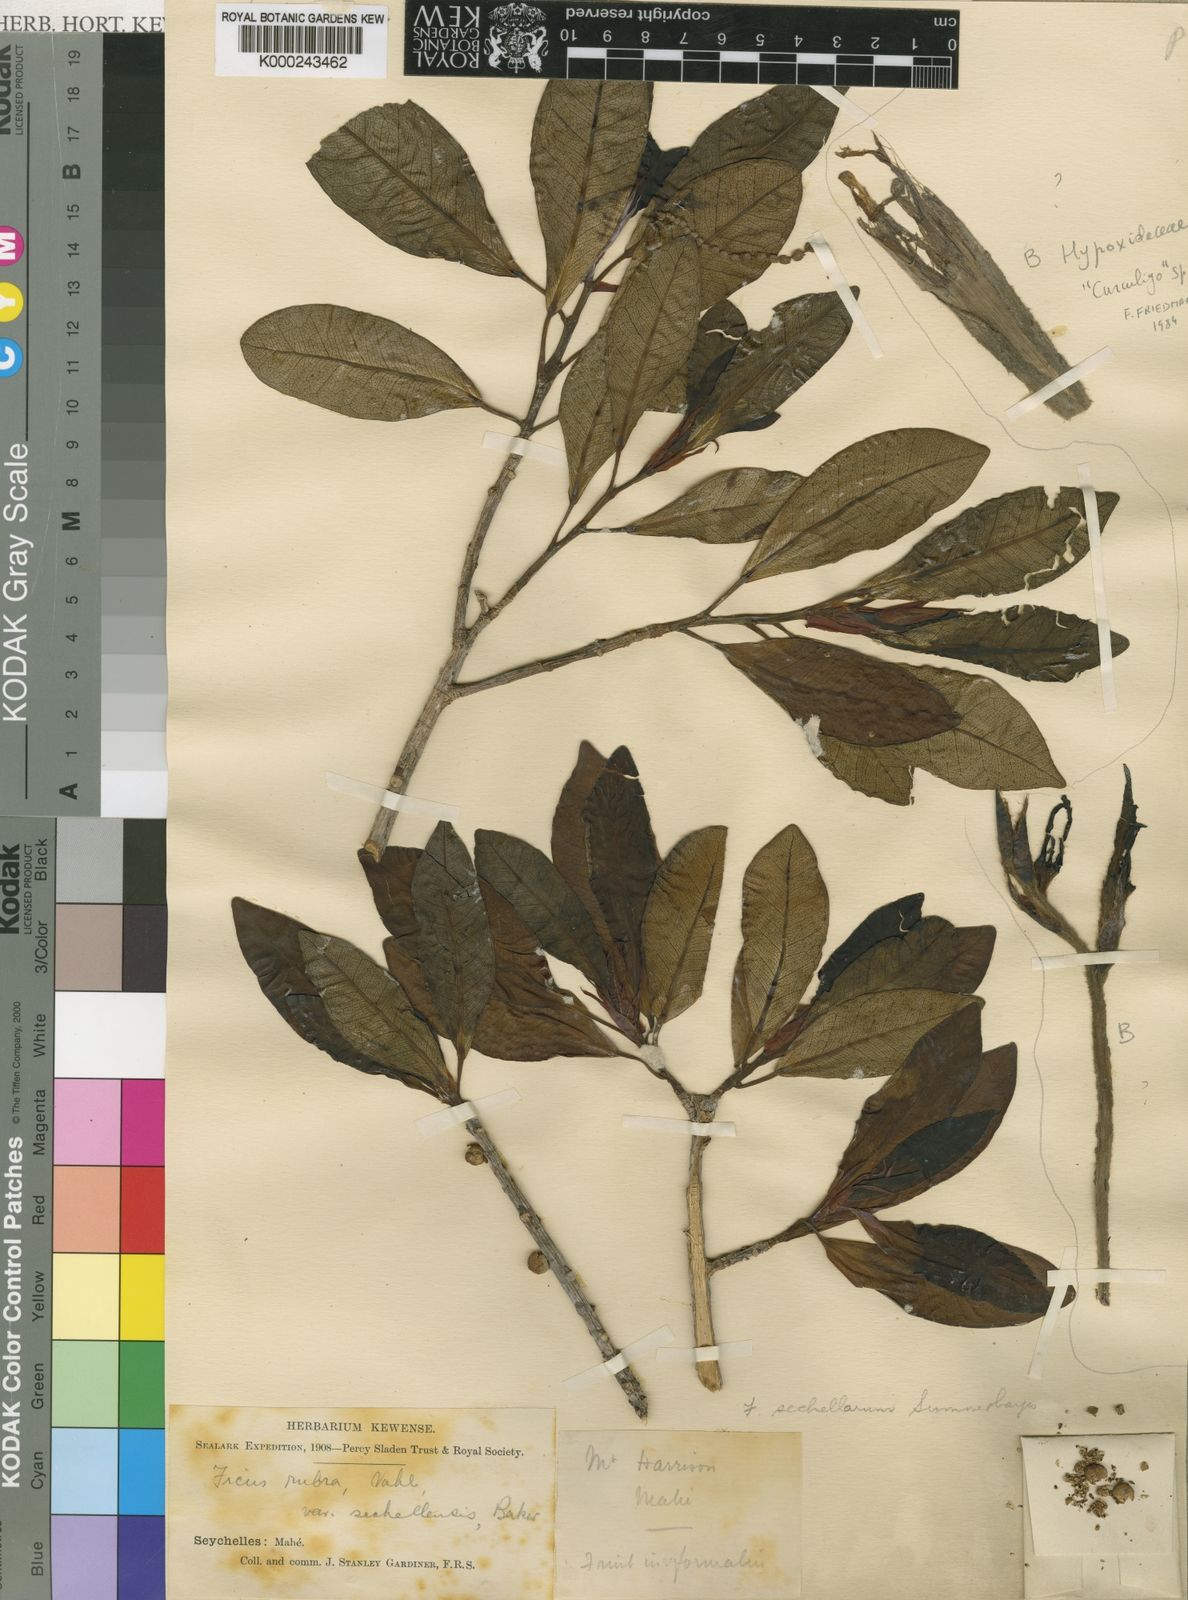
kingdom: Plantae
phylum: Tracheophyta
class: Magnoliopsida
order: Rosales
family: Moraceae
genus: Ficus
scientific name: Ficus reflexa
